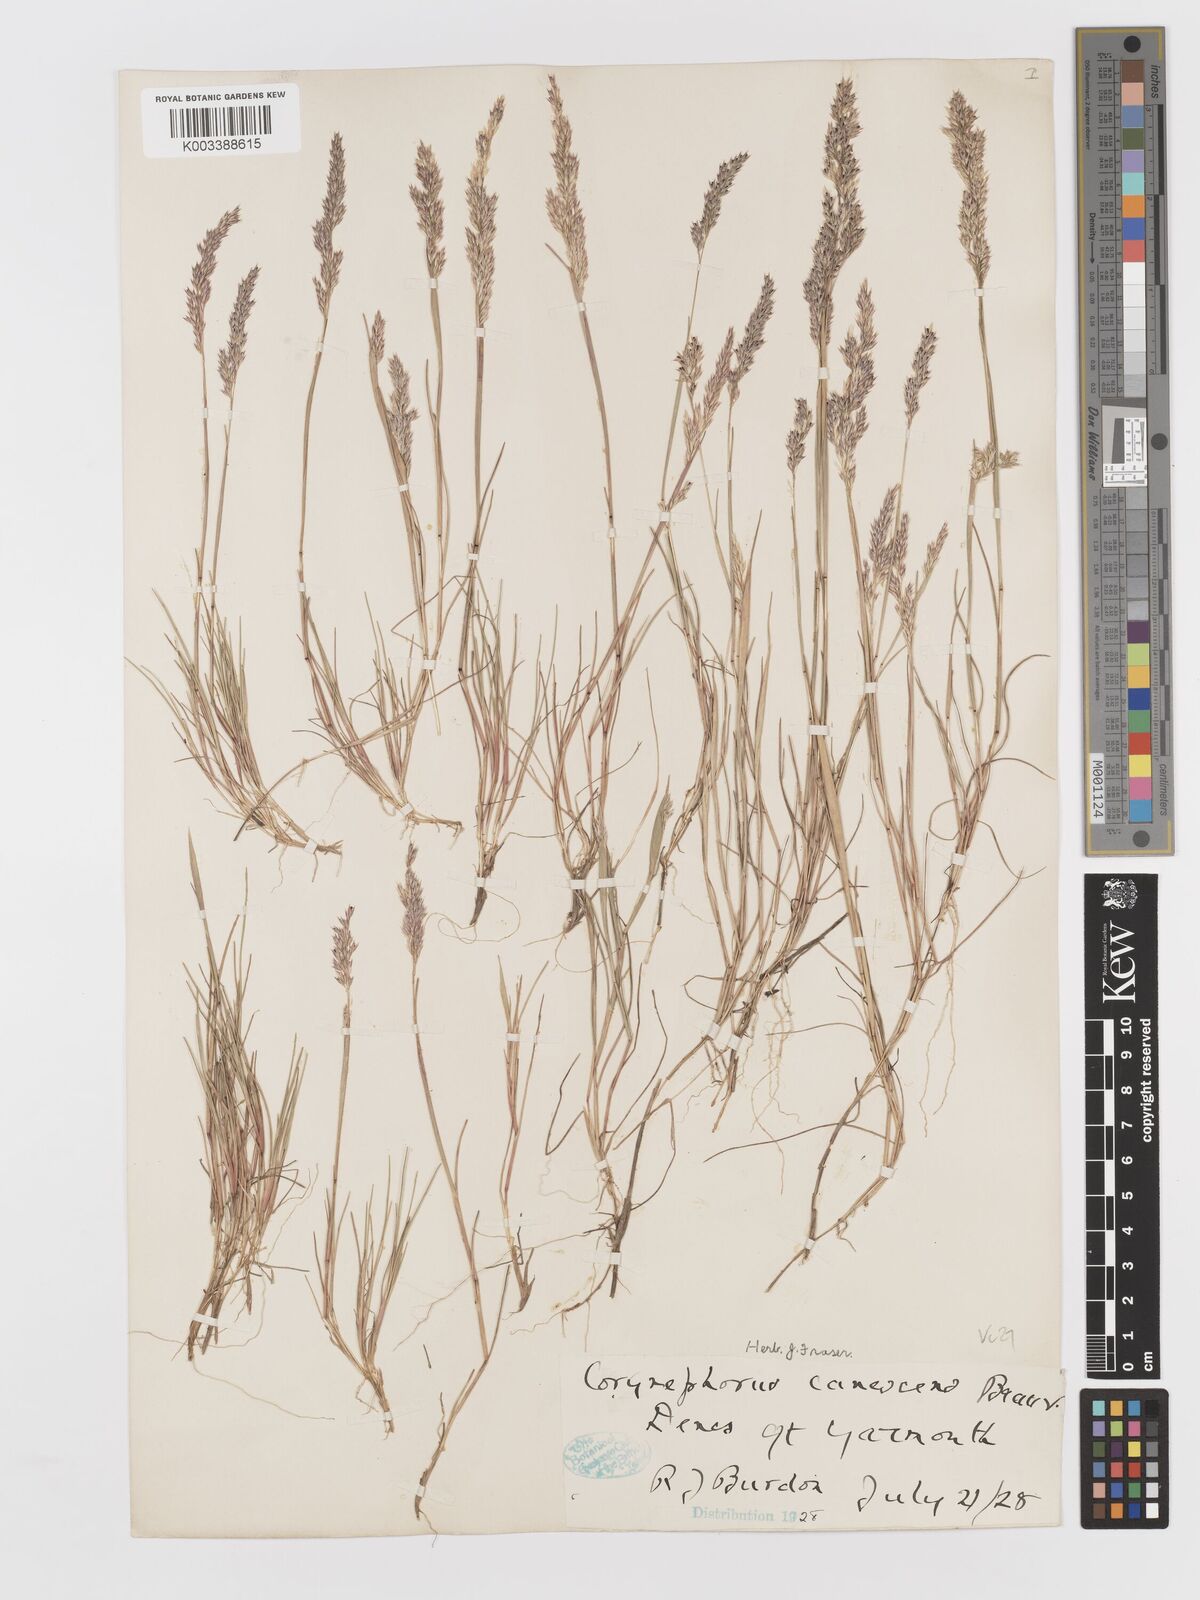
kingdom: Plantae
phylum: Tracheophyta
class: Liliopsida
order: Poales
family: Poaceae
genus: Corynephorus
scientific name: Corynephorus canescens
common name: Grey hair-grass
